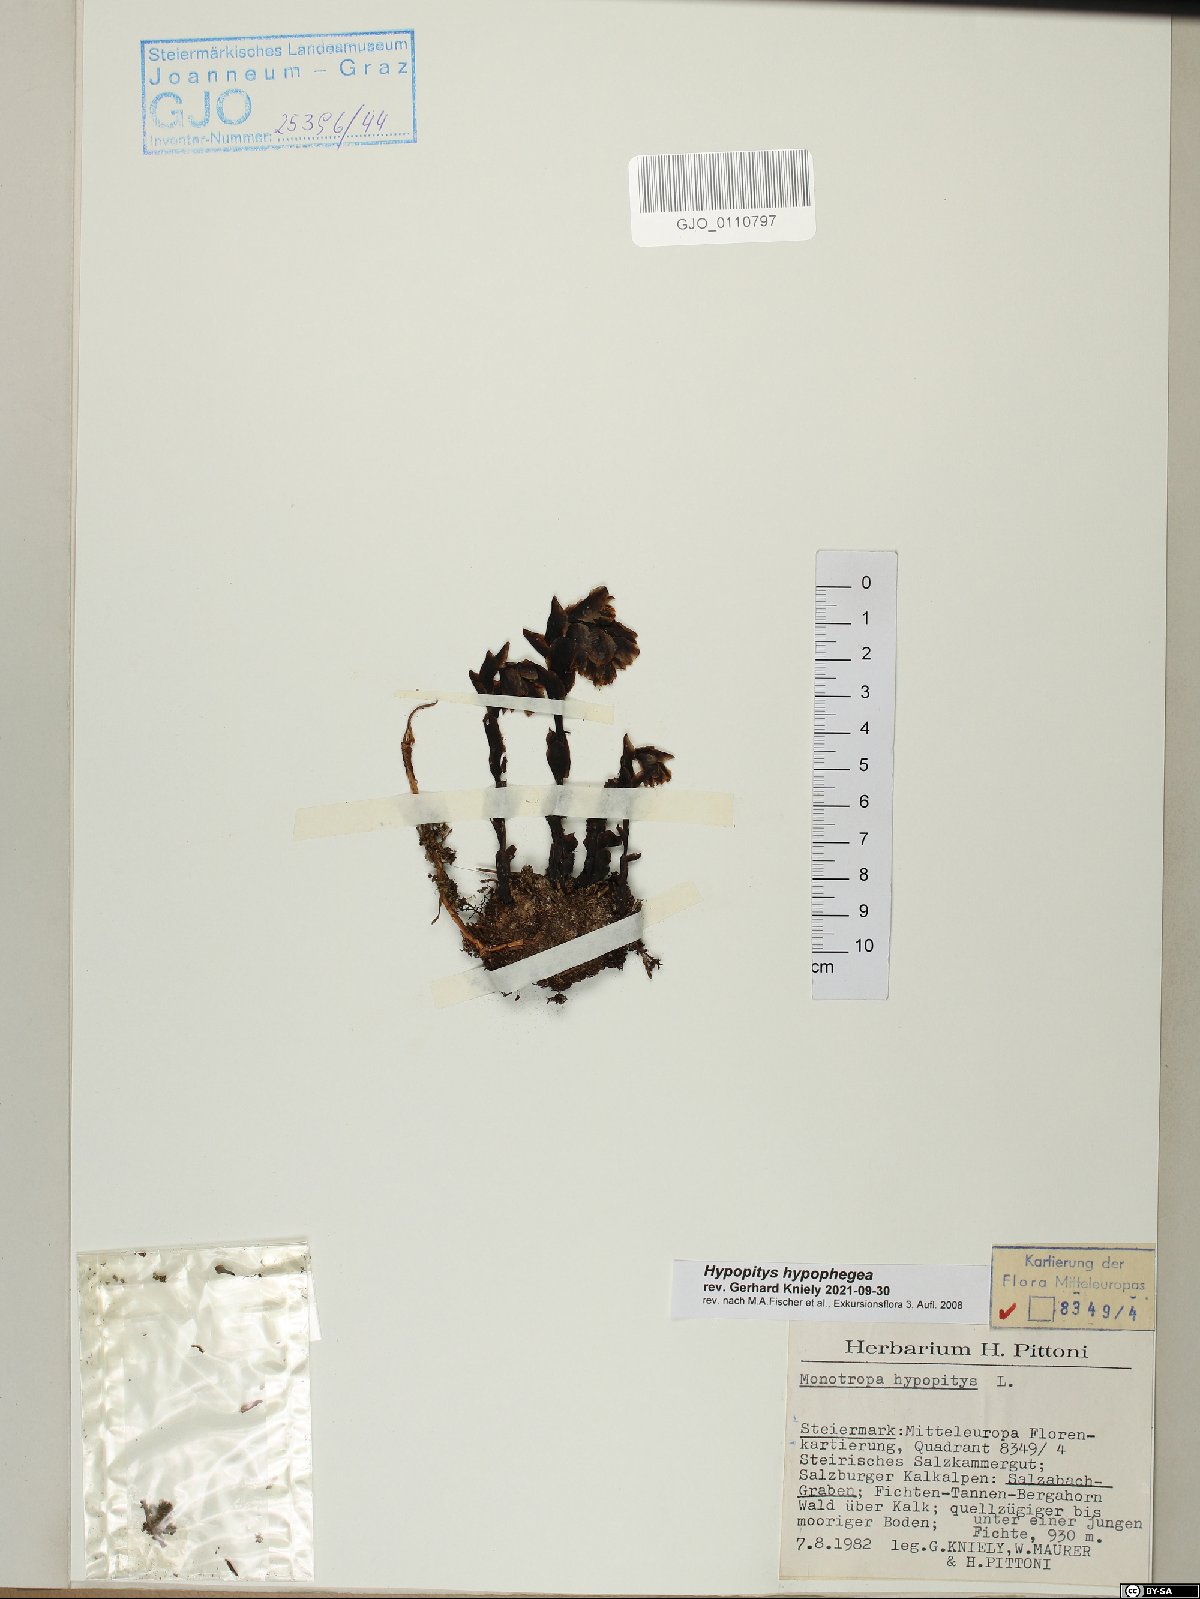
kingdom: Plantae
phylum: Tracheophyta
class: Magnoliopsida
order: Ericales
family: Ericaceae
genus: Hypopitys
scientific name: Hypopitys hypophegea
